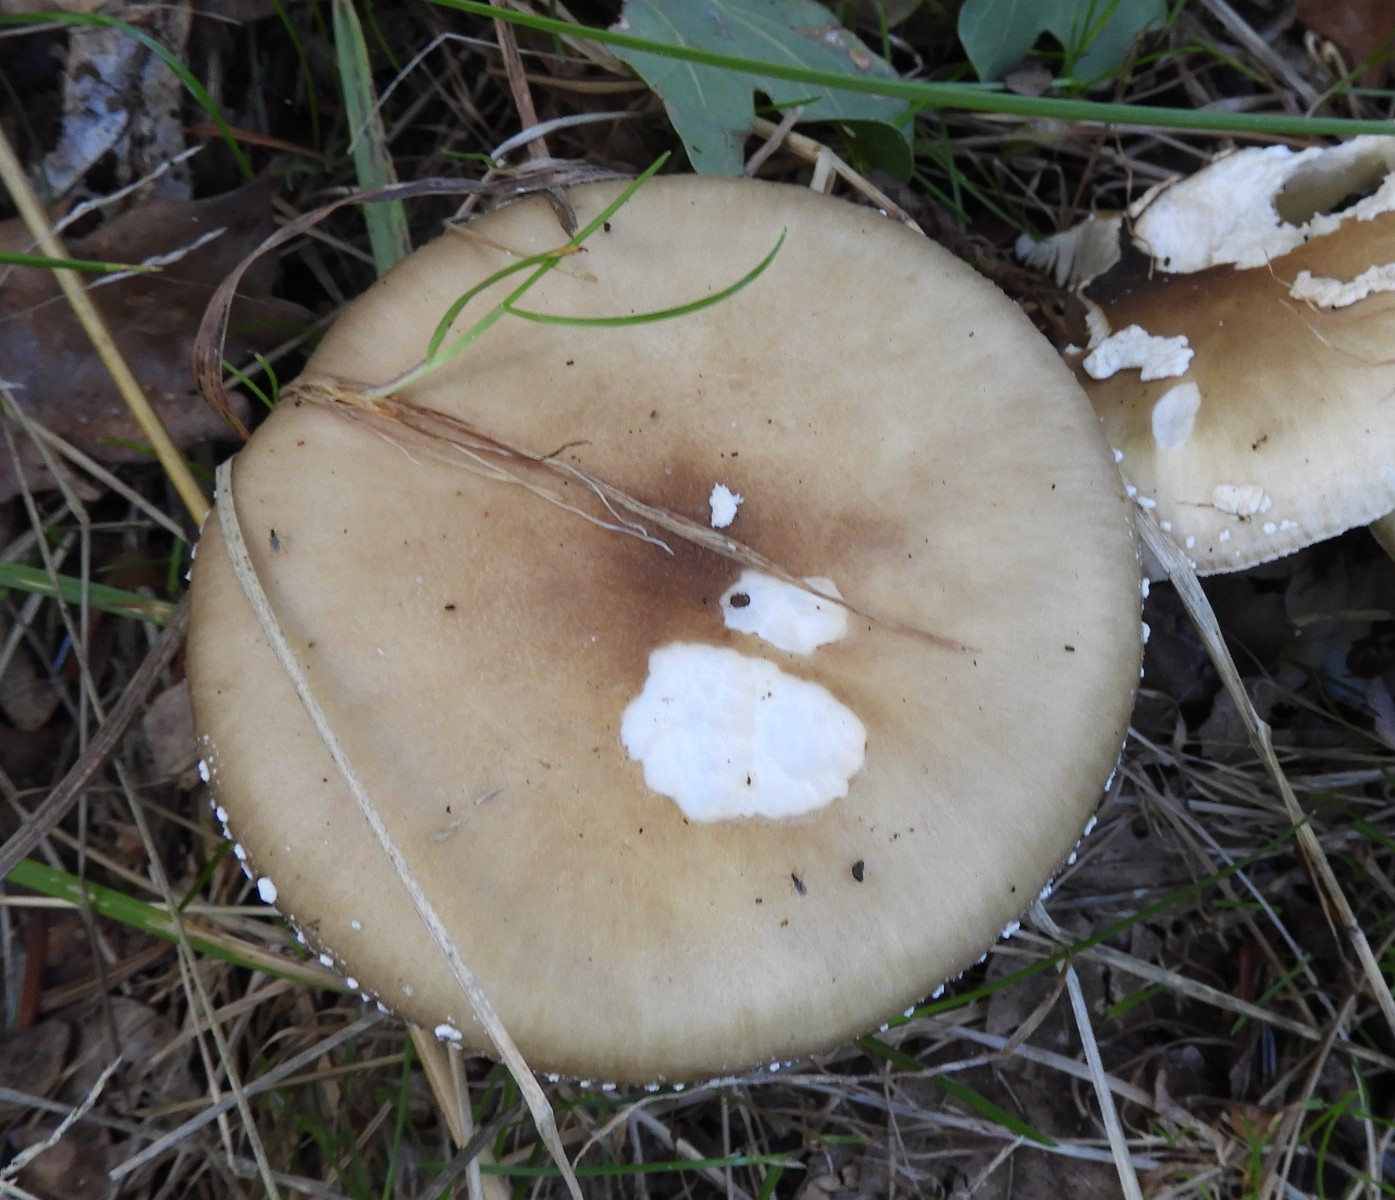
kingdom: Fungi
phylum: Basidiomycota
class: Agaricomycetes
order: Agaricales
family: Amanitaceae
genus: Amanita
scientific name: Amanita
